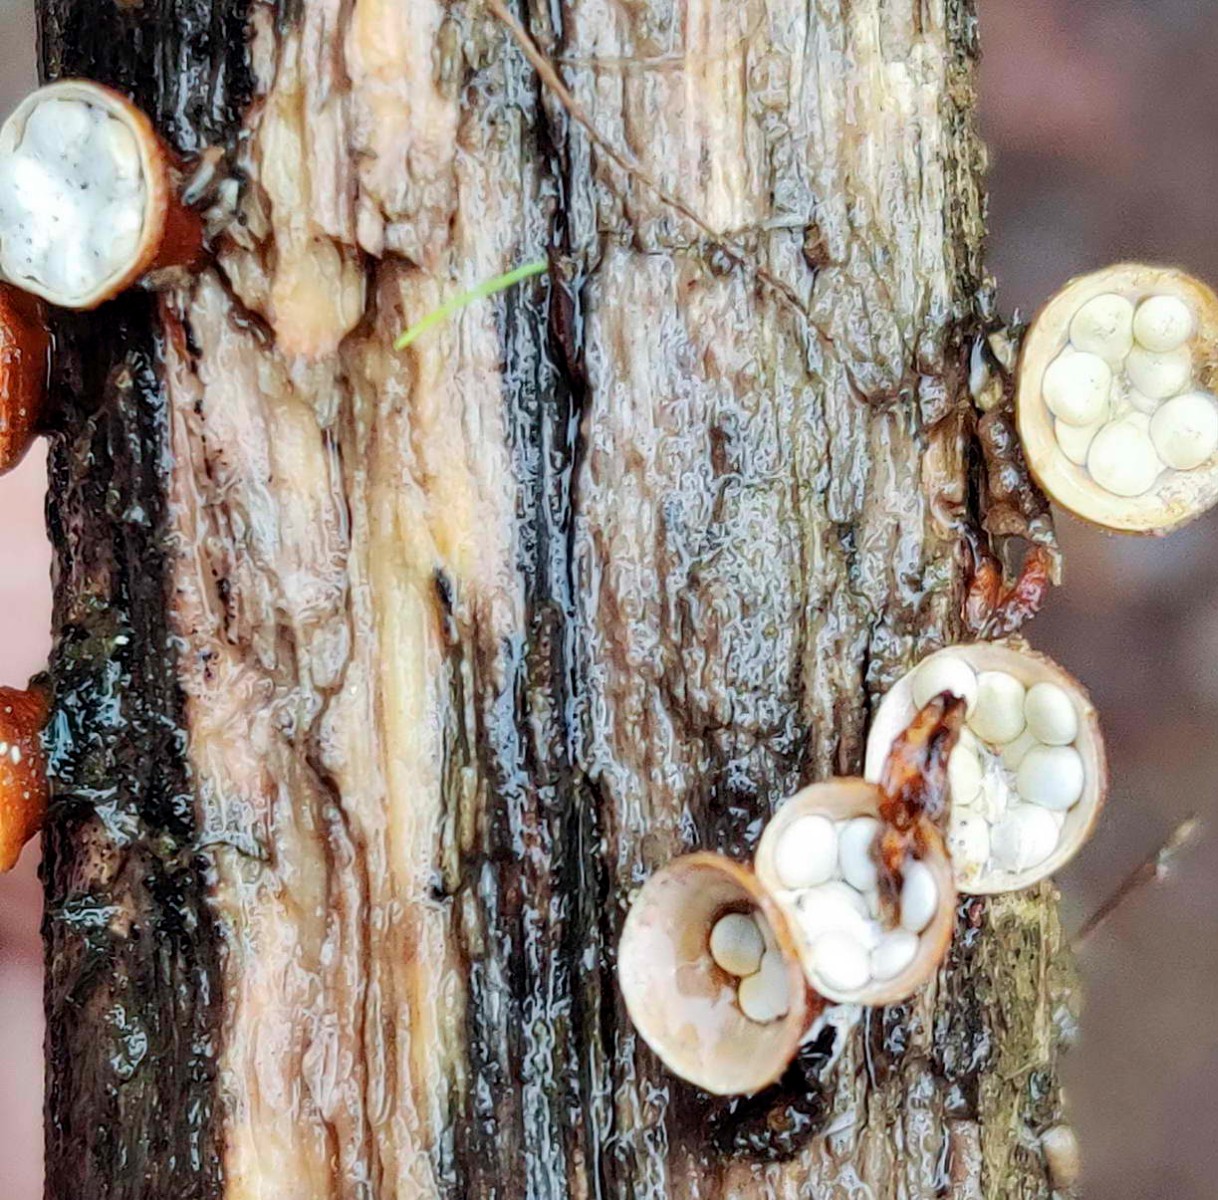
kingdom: Fungi
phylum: Basidiomycota
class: Agaricomycetes
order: Agaricales
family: Nidulariaceae
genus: Crucibulum
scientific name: Crucibulum crucibuliforme
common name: krukkesvamp
